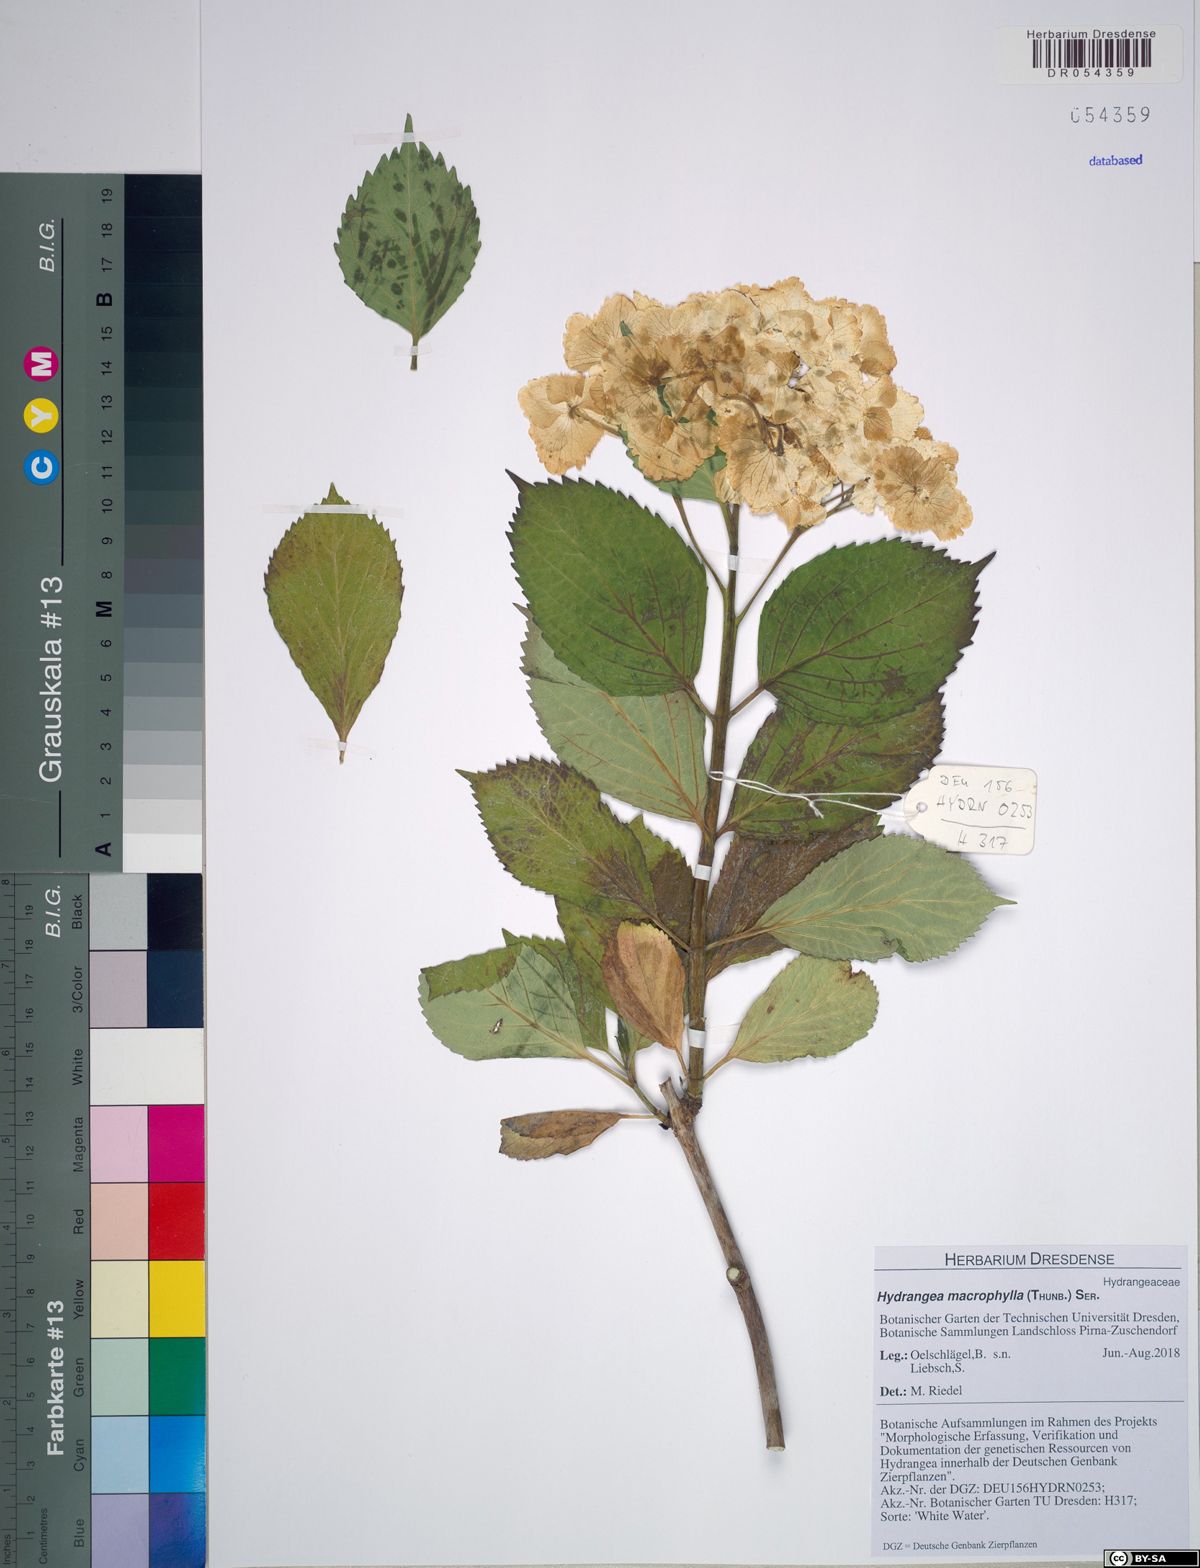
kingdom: Plantae
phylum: Tracheophyta
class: Magnoliopsida
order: Cornales
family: Hydrangeaceae
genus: Hydrangea
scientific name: Hydrangea macrophylla
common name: Hydrangea
